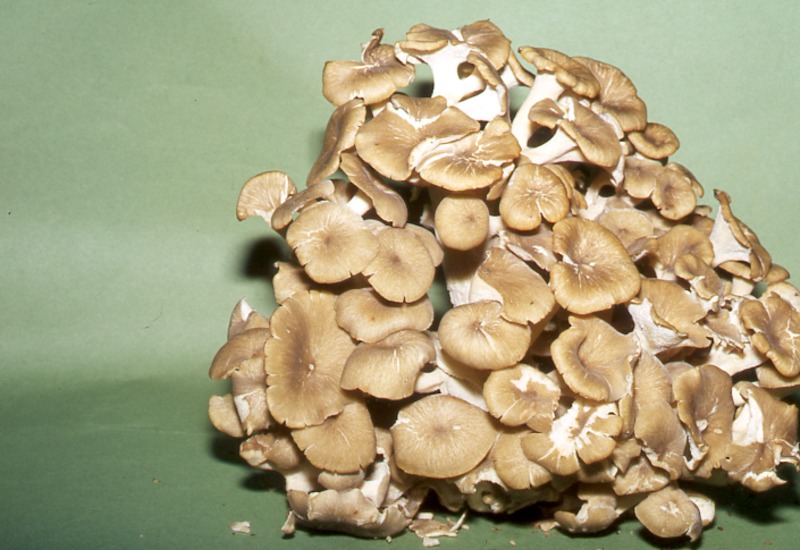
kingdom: Fungi
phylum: Basidiomycota
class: Agaricomycetes
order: Polyporales
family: Polyporaceae
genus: Polyporus
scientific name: Polyporus umbellatus
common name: Umbrella polypore
